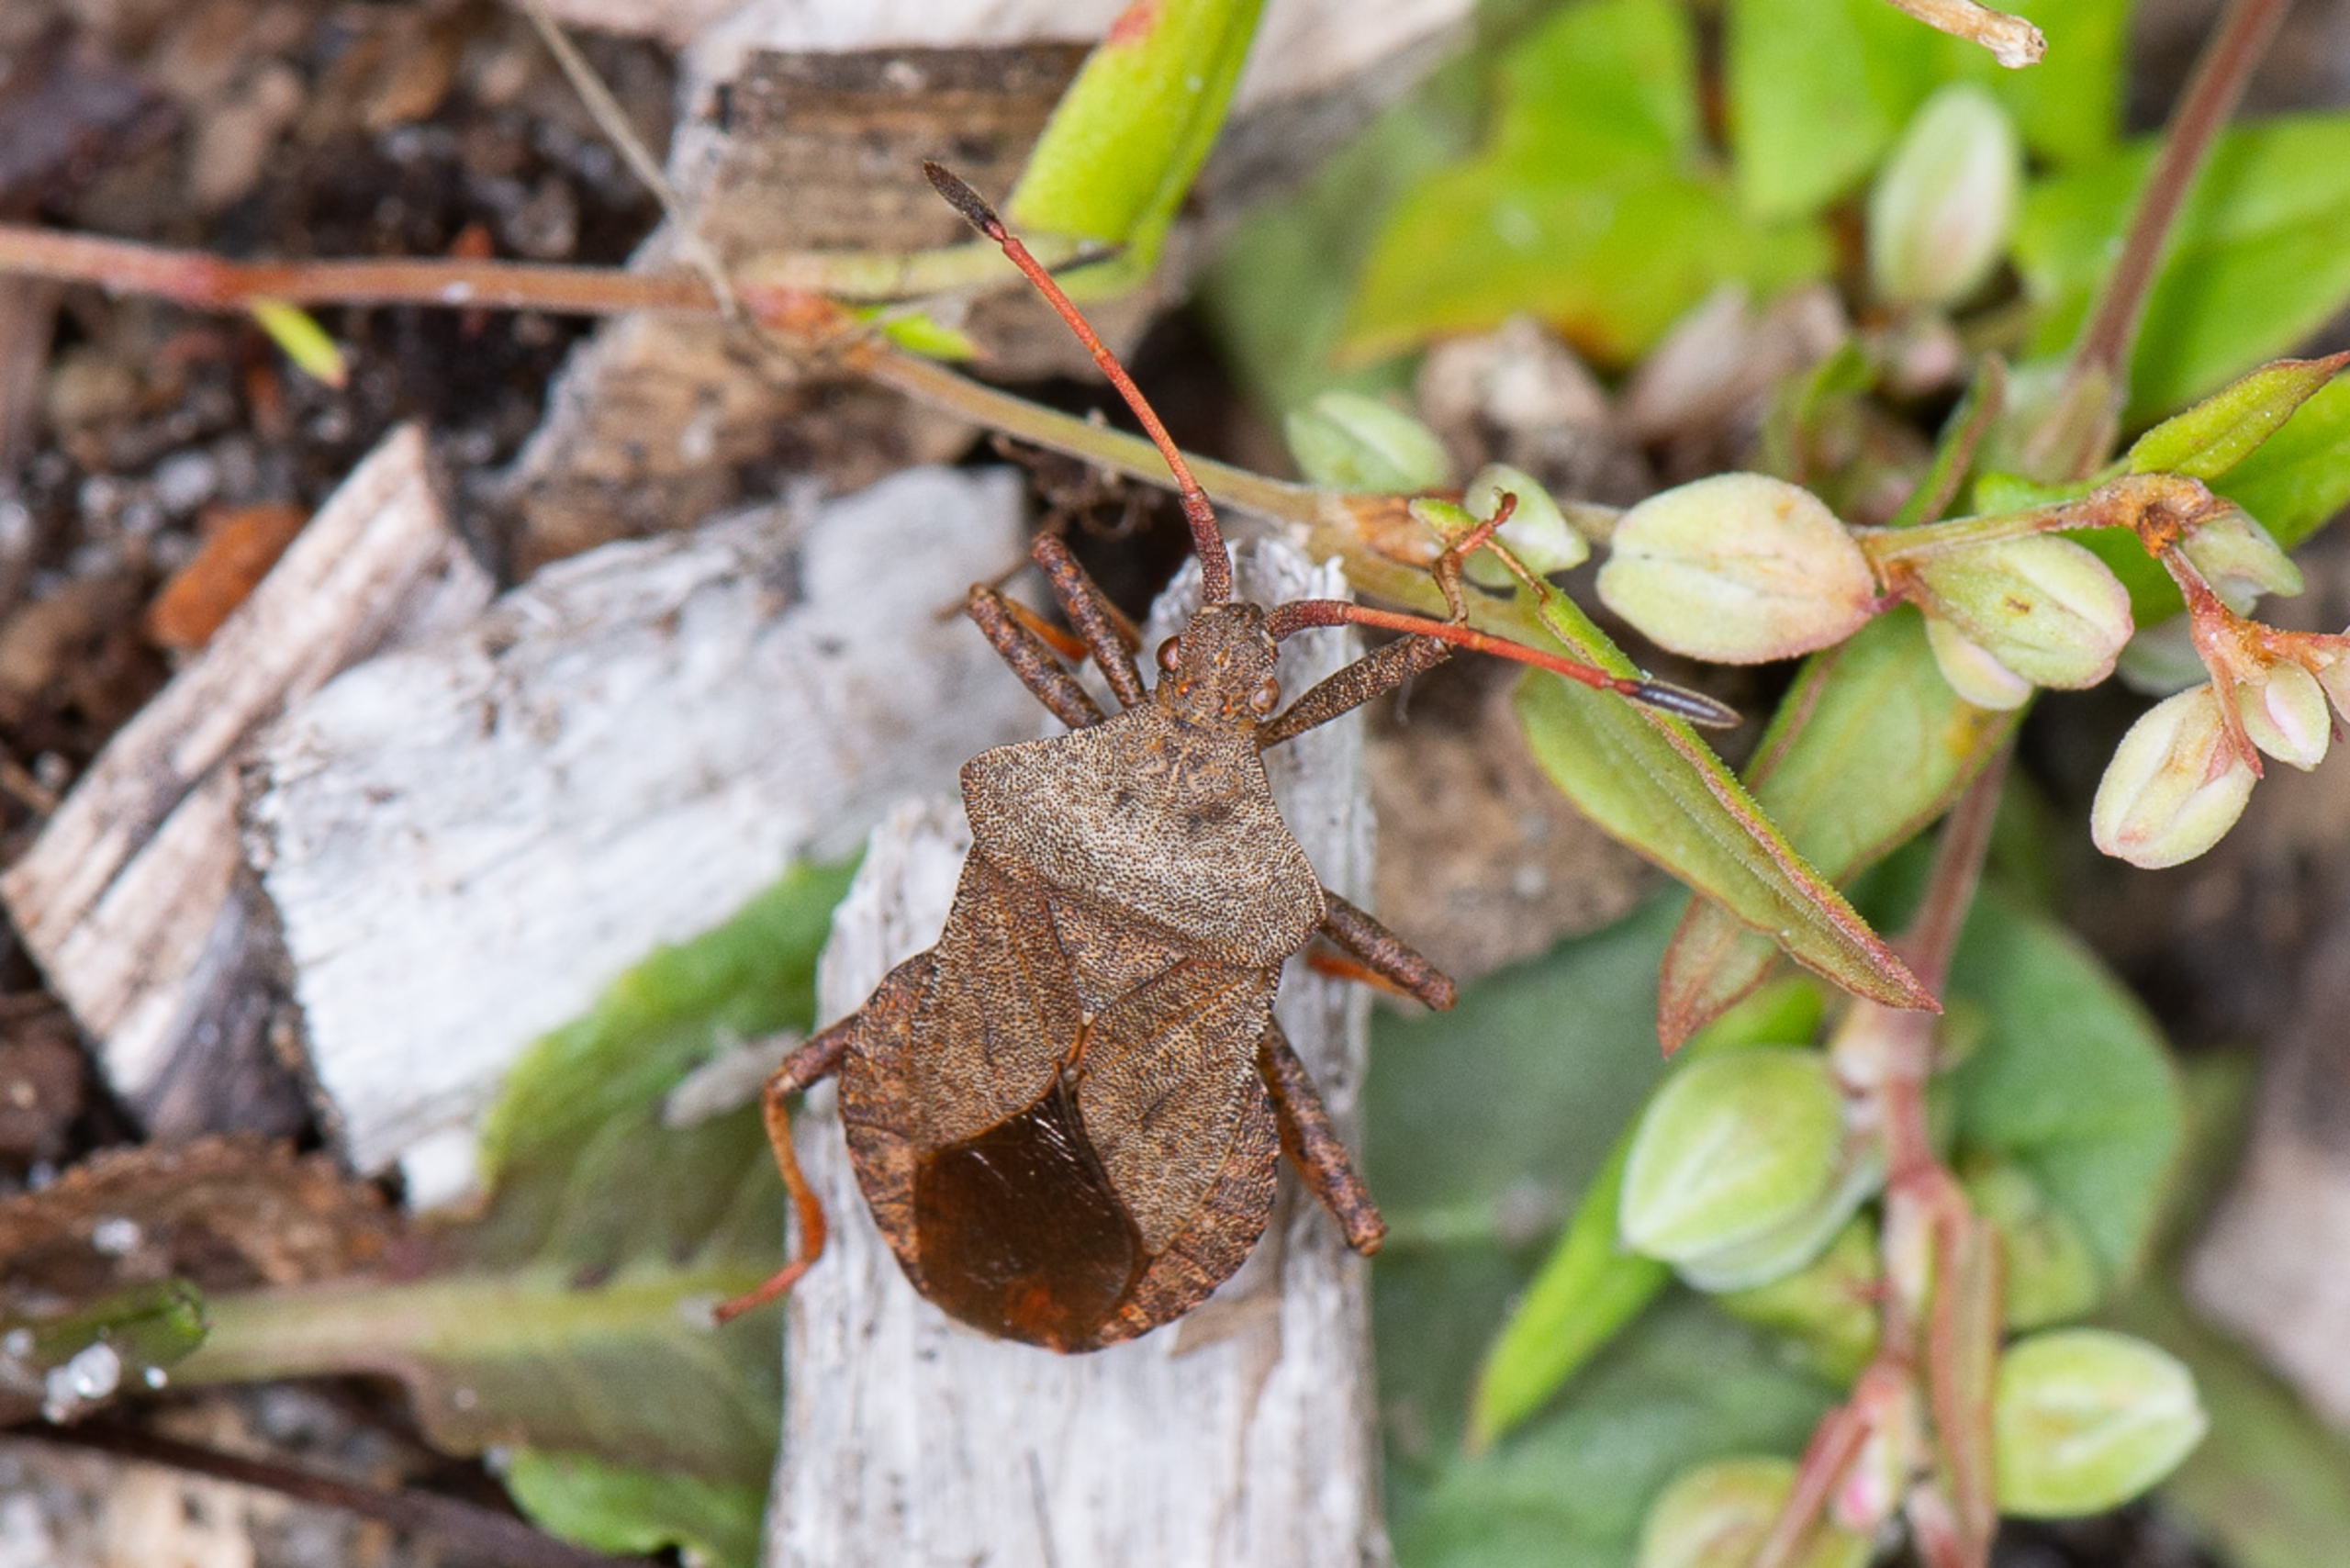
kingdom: Animalia
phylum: Arthropoda
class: Insecta
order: Hemiptera
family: Coreidae
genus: Coreus
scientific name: Coreus marginatus
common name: Skræppetæge
